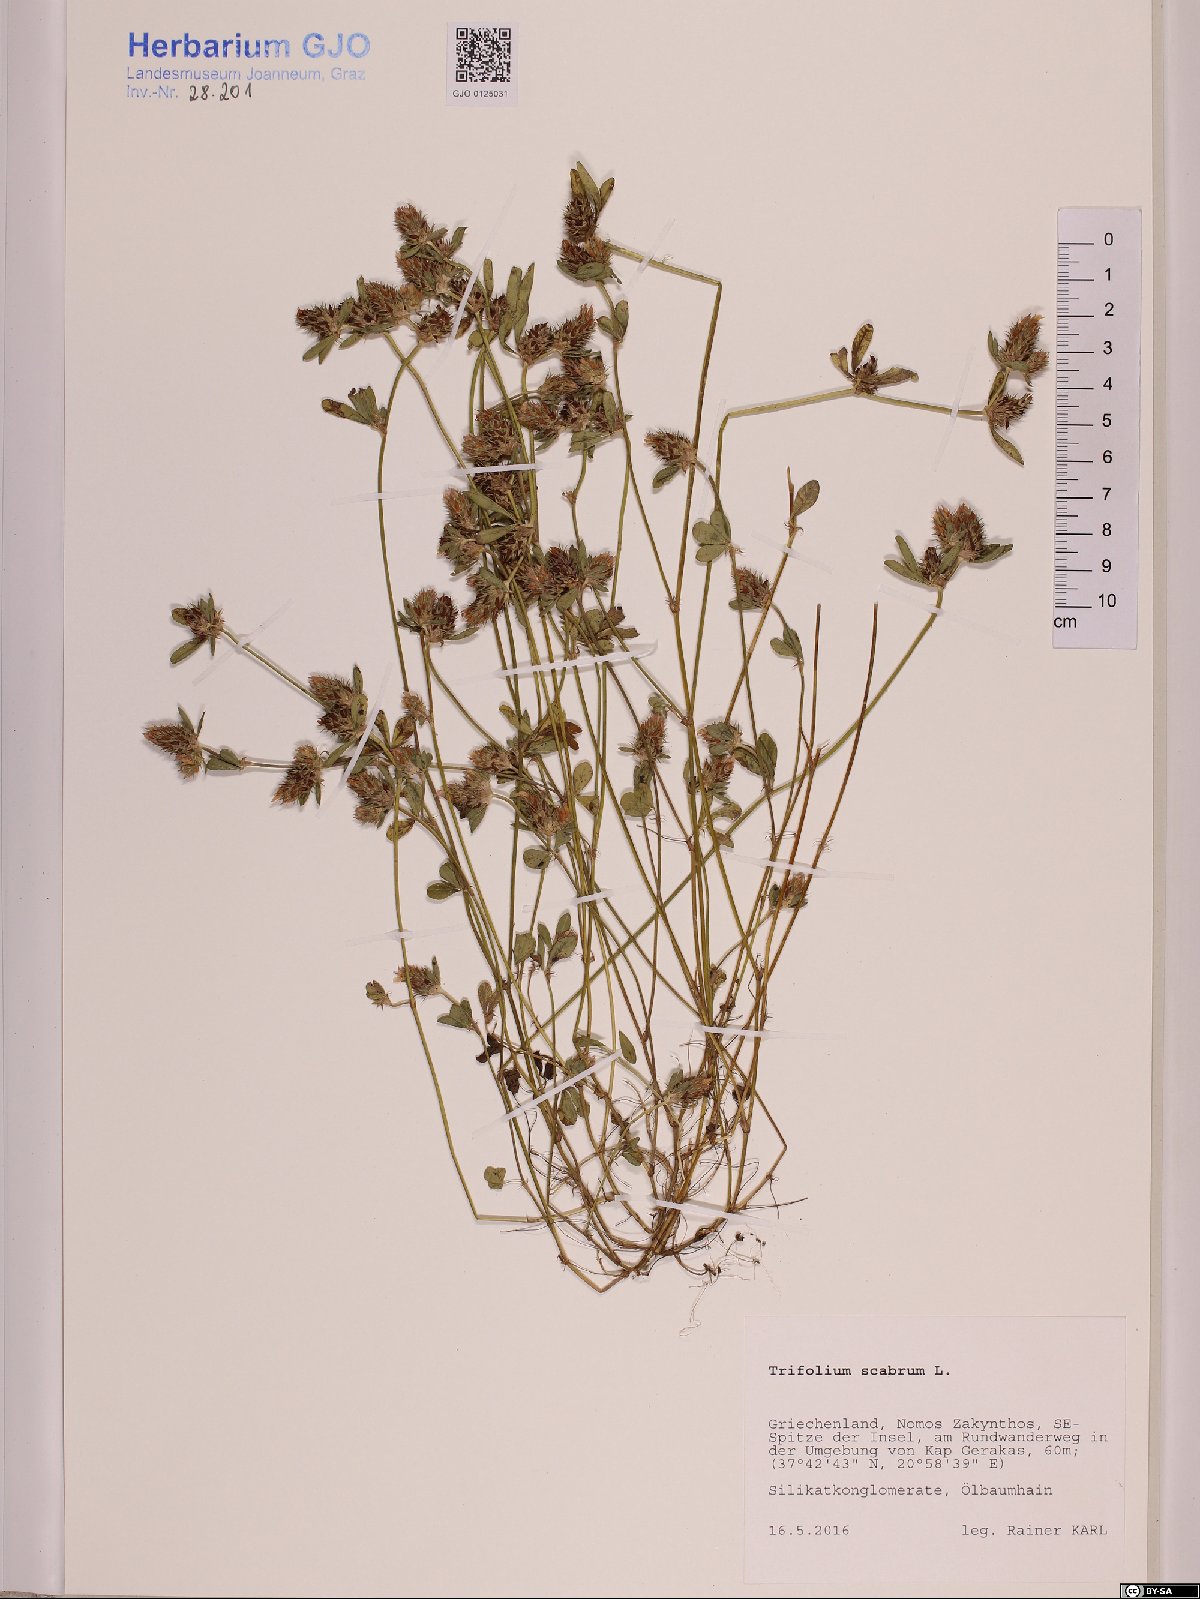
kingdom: Plantae
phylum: Tracheophyta
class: Magnoliopsida
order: Fabales
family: Fabaceae
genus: Trifolium
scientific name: Trifolium scabrum
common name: Rough clover
